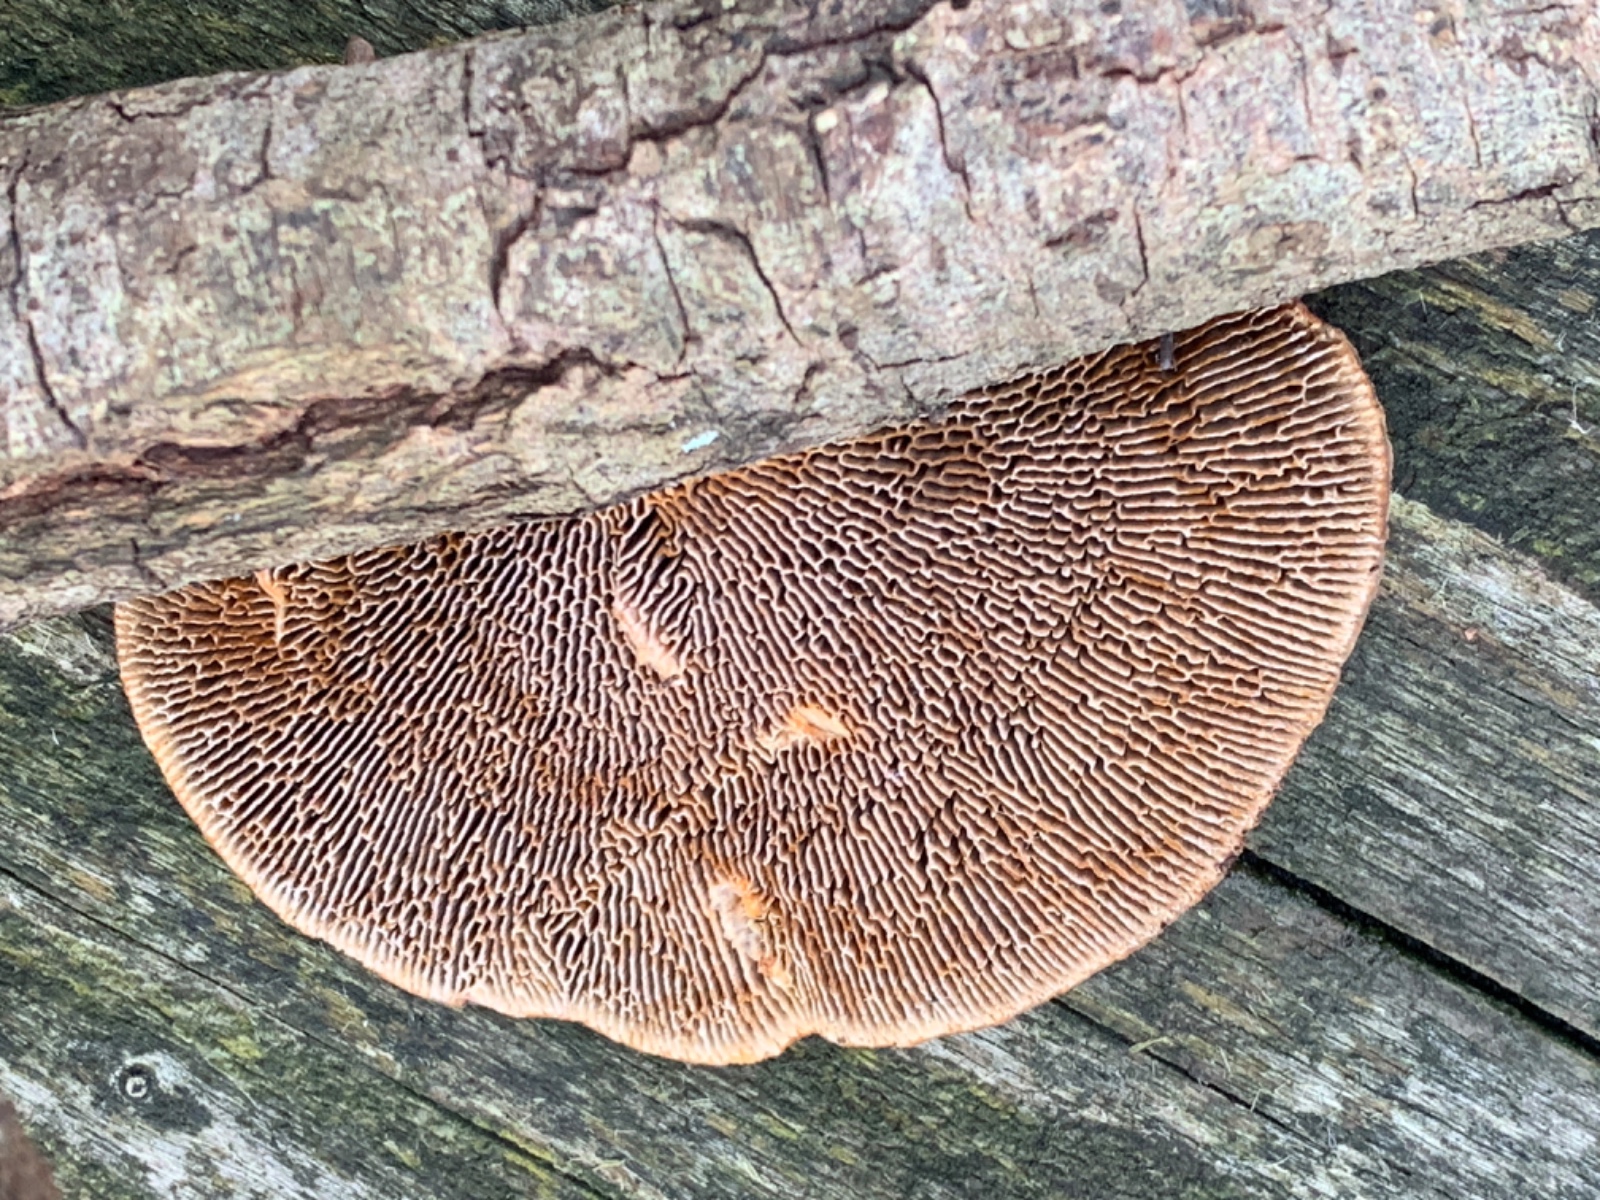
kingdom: Fungi
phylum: Basidiomycota
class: Agaricomycetes
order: Polyporales
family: Polyporaceae
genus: Daedaleopsis
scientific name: Daedaleopsis confragosa
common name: rødmende læderporesvamp
